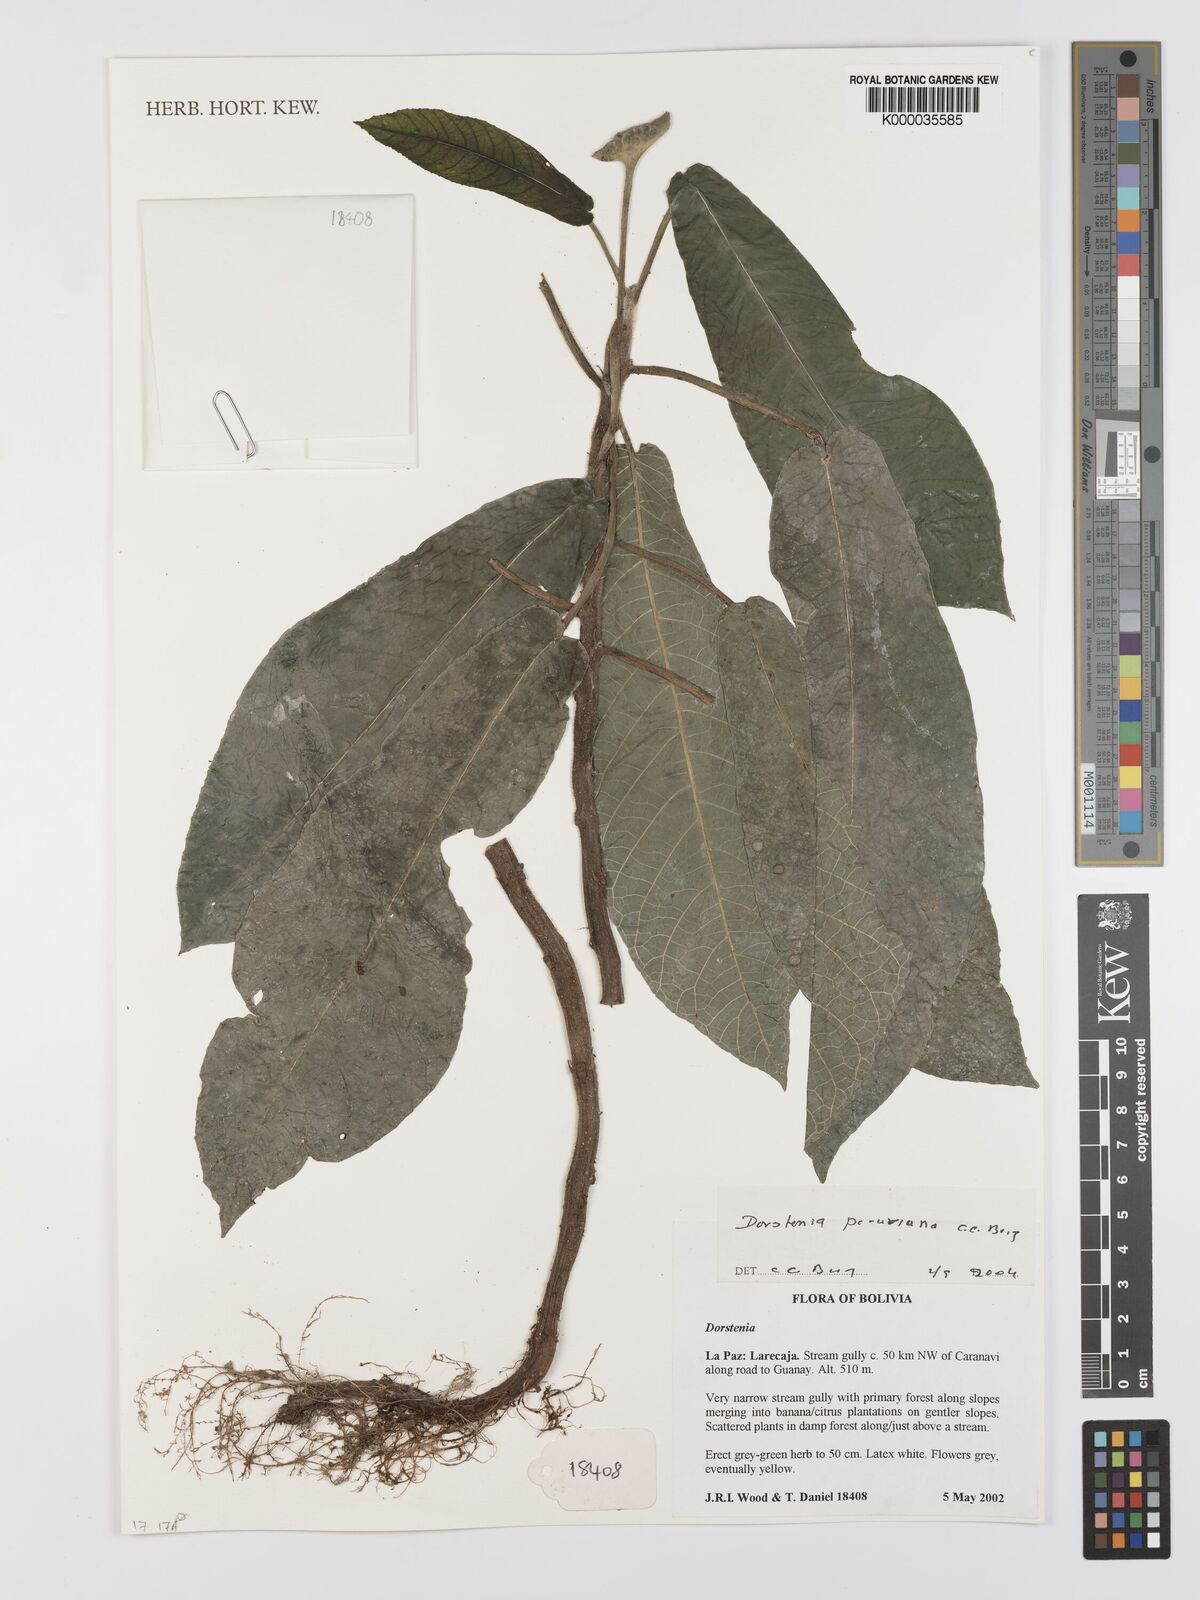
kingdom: Plantae
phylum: Tracheophyta
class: Magnoliopsida
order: Rosales
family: Moraceae
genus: Dorstenia
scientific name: Dorstenia peruviana
